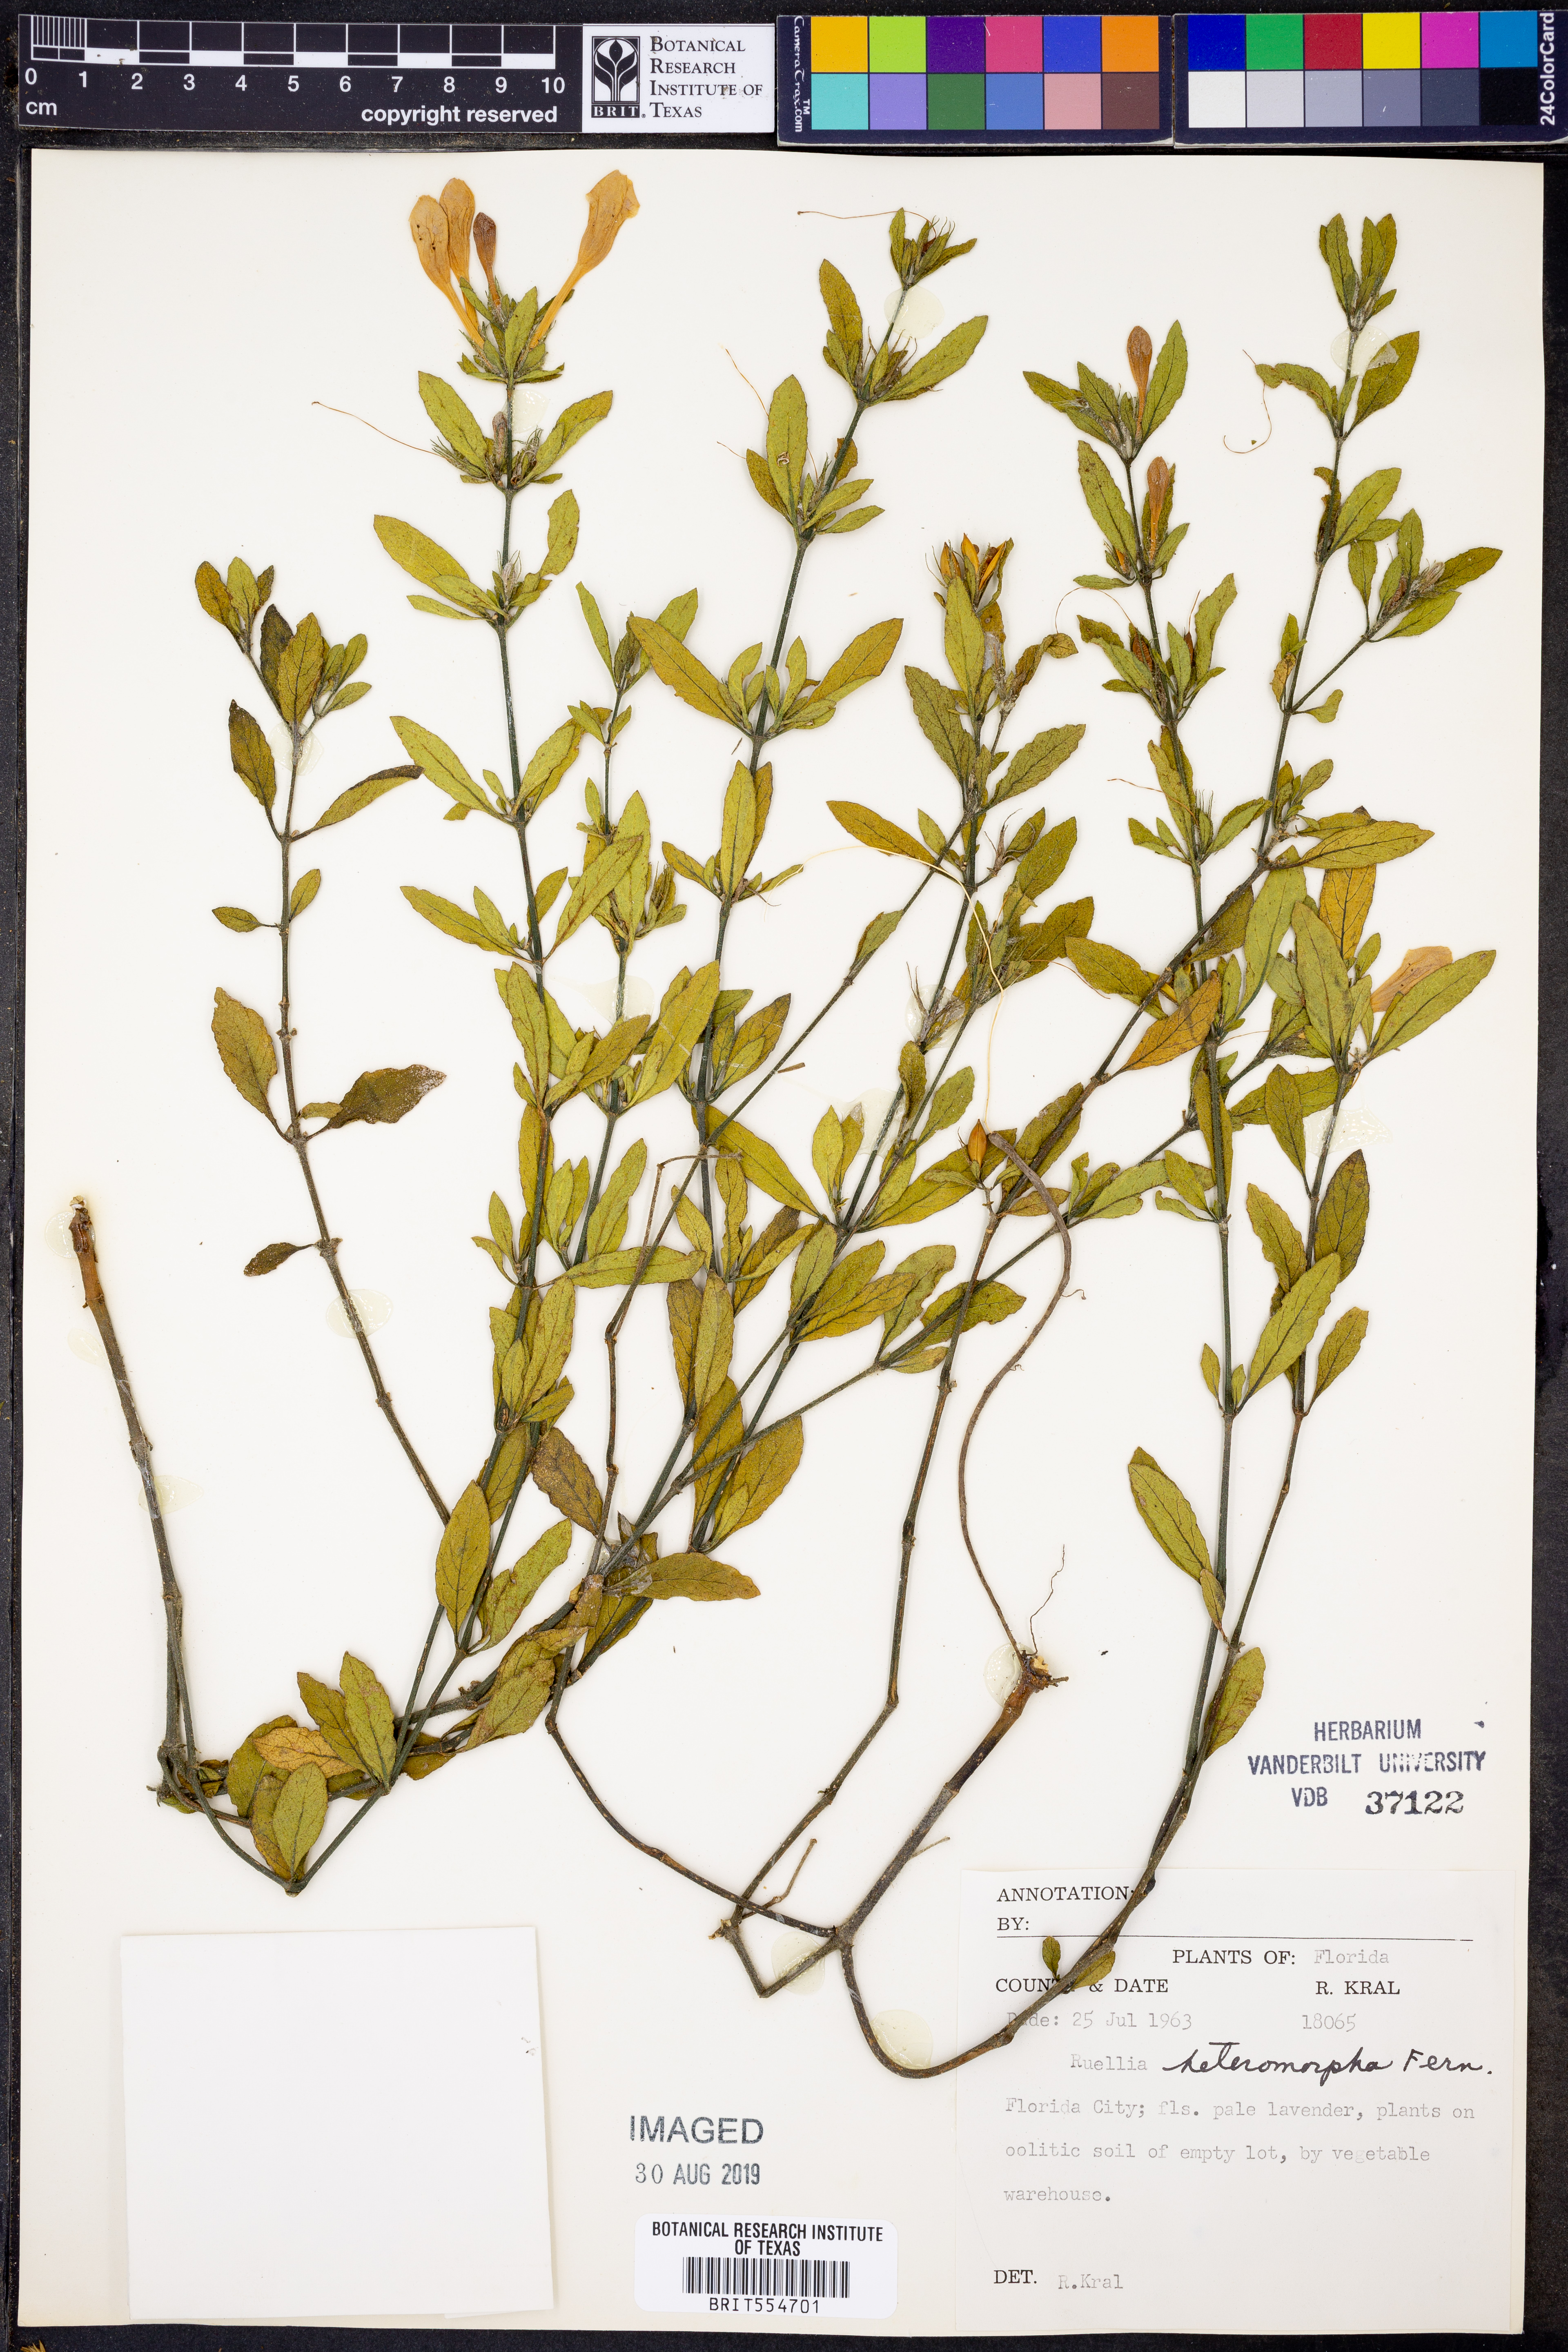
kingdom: Plantae
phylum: Tracheophyta
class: Magnoliopsida
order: Lamiales
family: Acanthaceae
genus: Ruellia
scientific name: Ruellia caroliniensis
